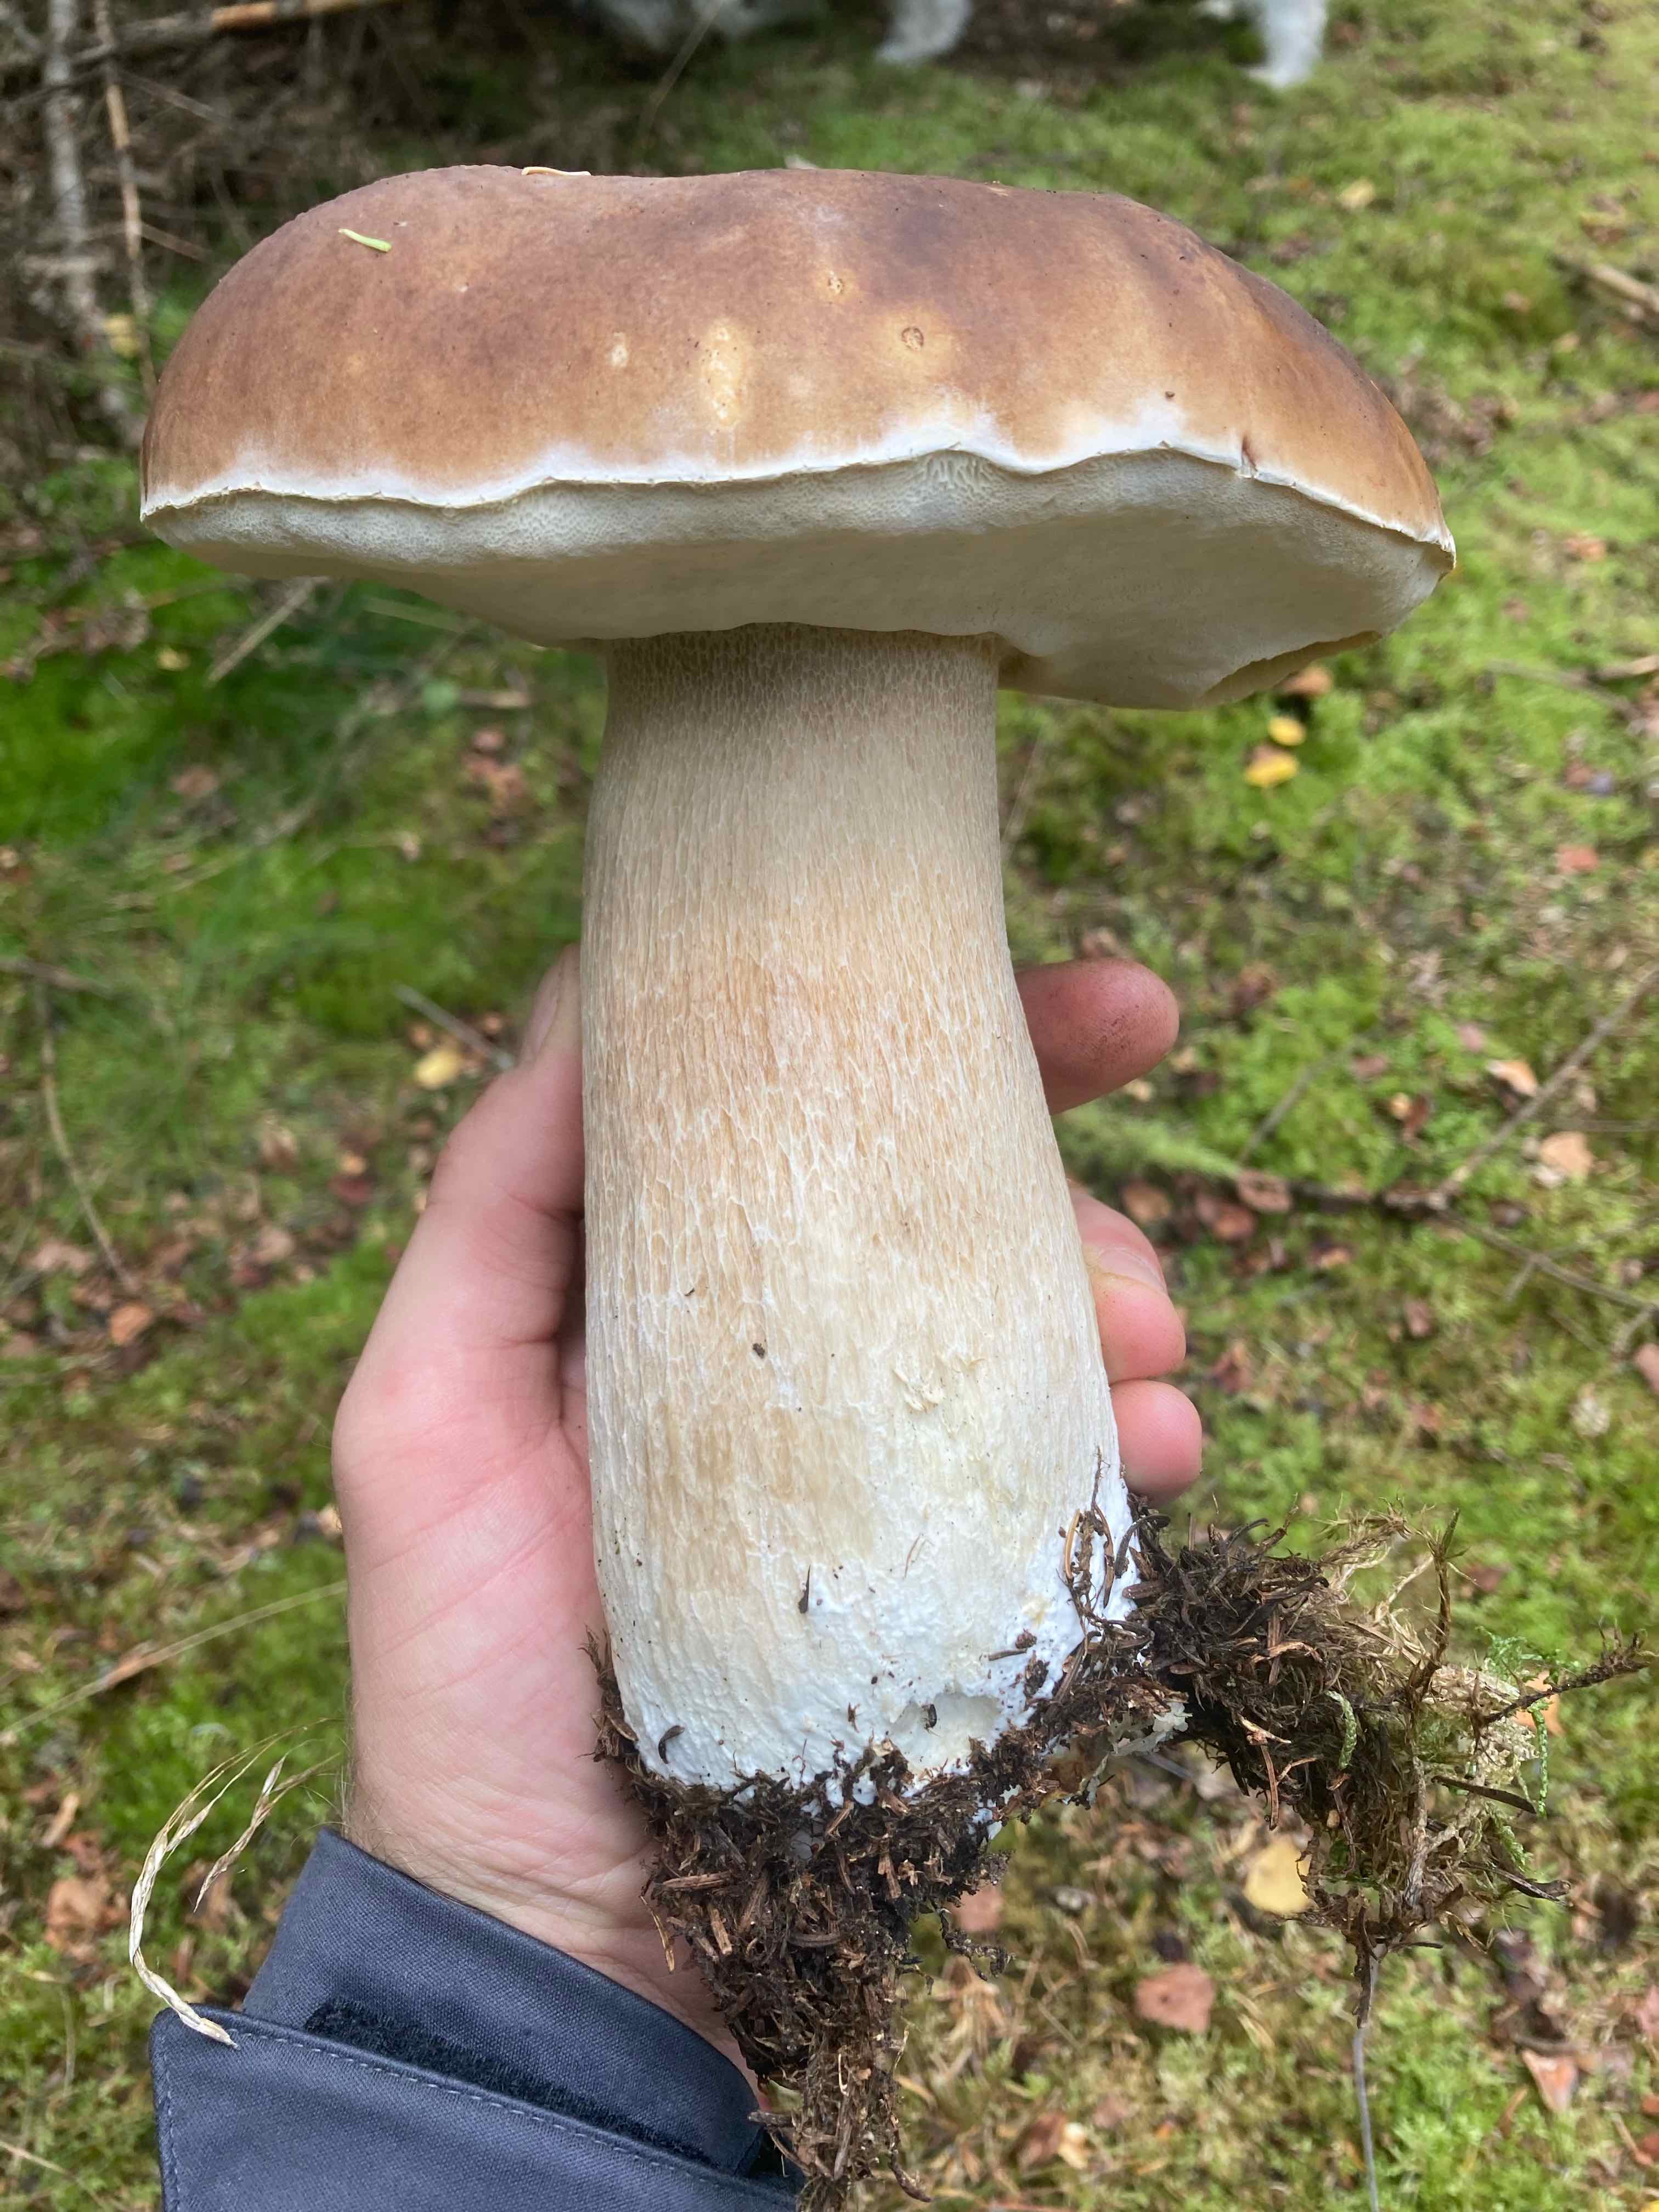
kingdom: Fungi
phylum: Basidiomycota
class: Agaricomycetes
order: Boletales
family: Boletaceae
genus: Boletus
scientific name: Boletus edulis
